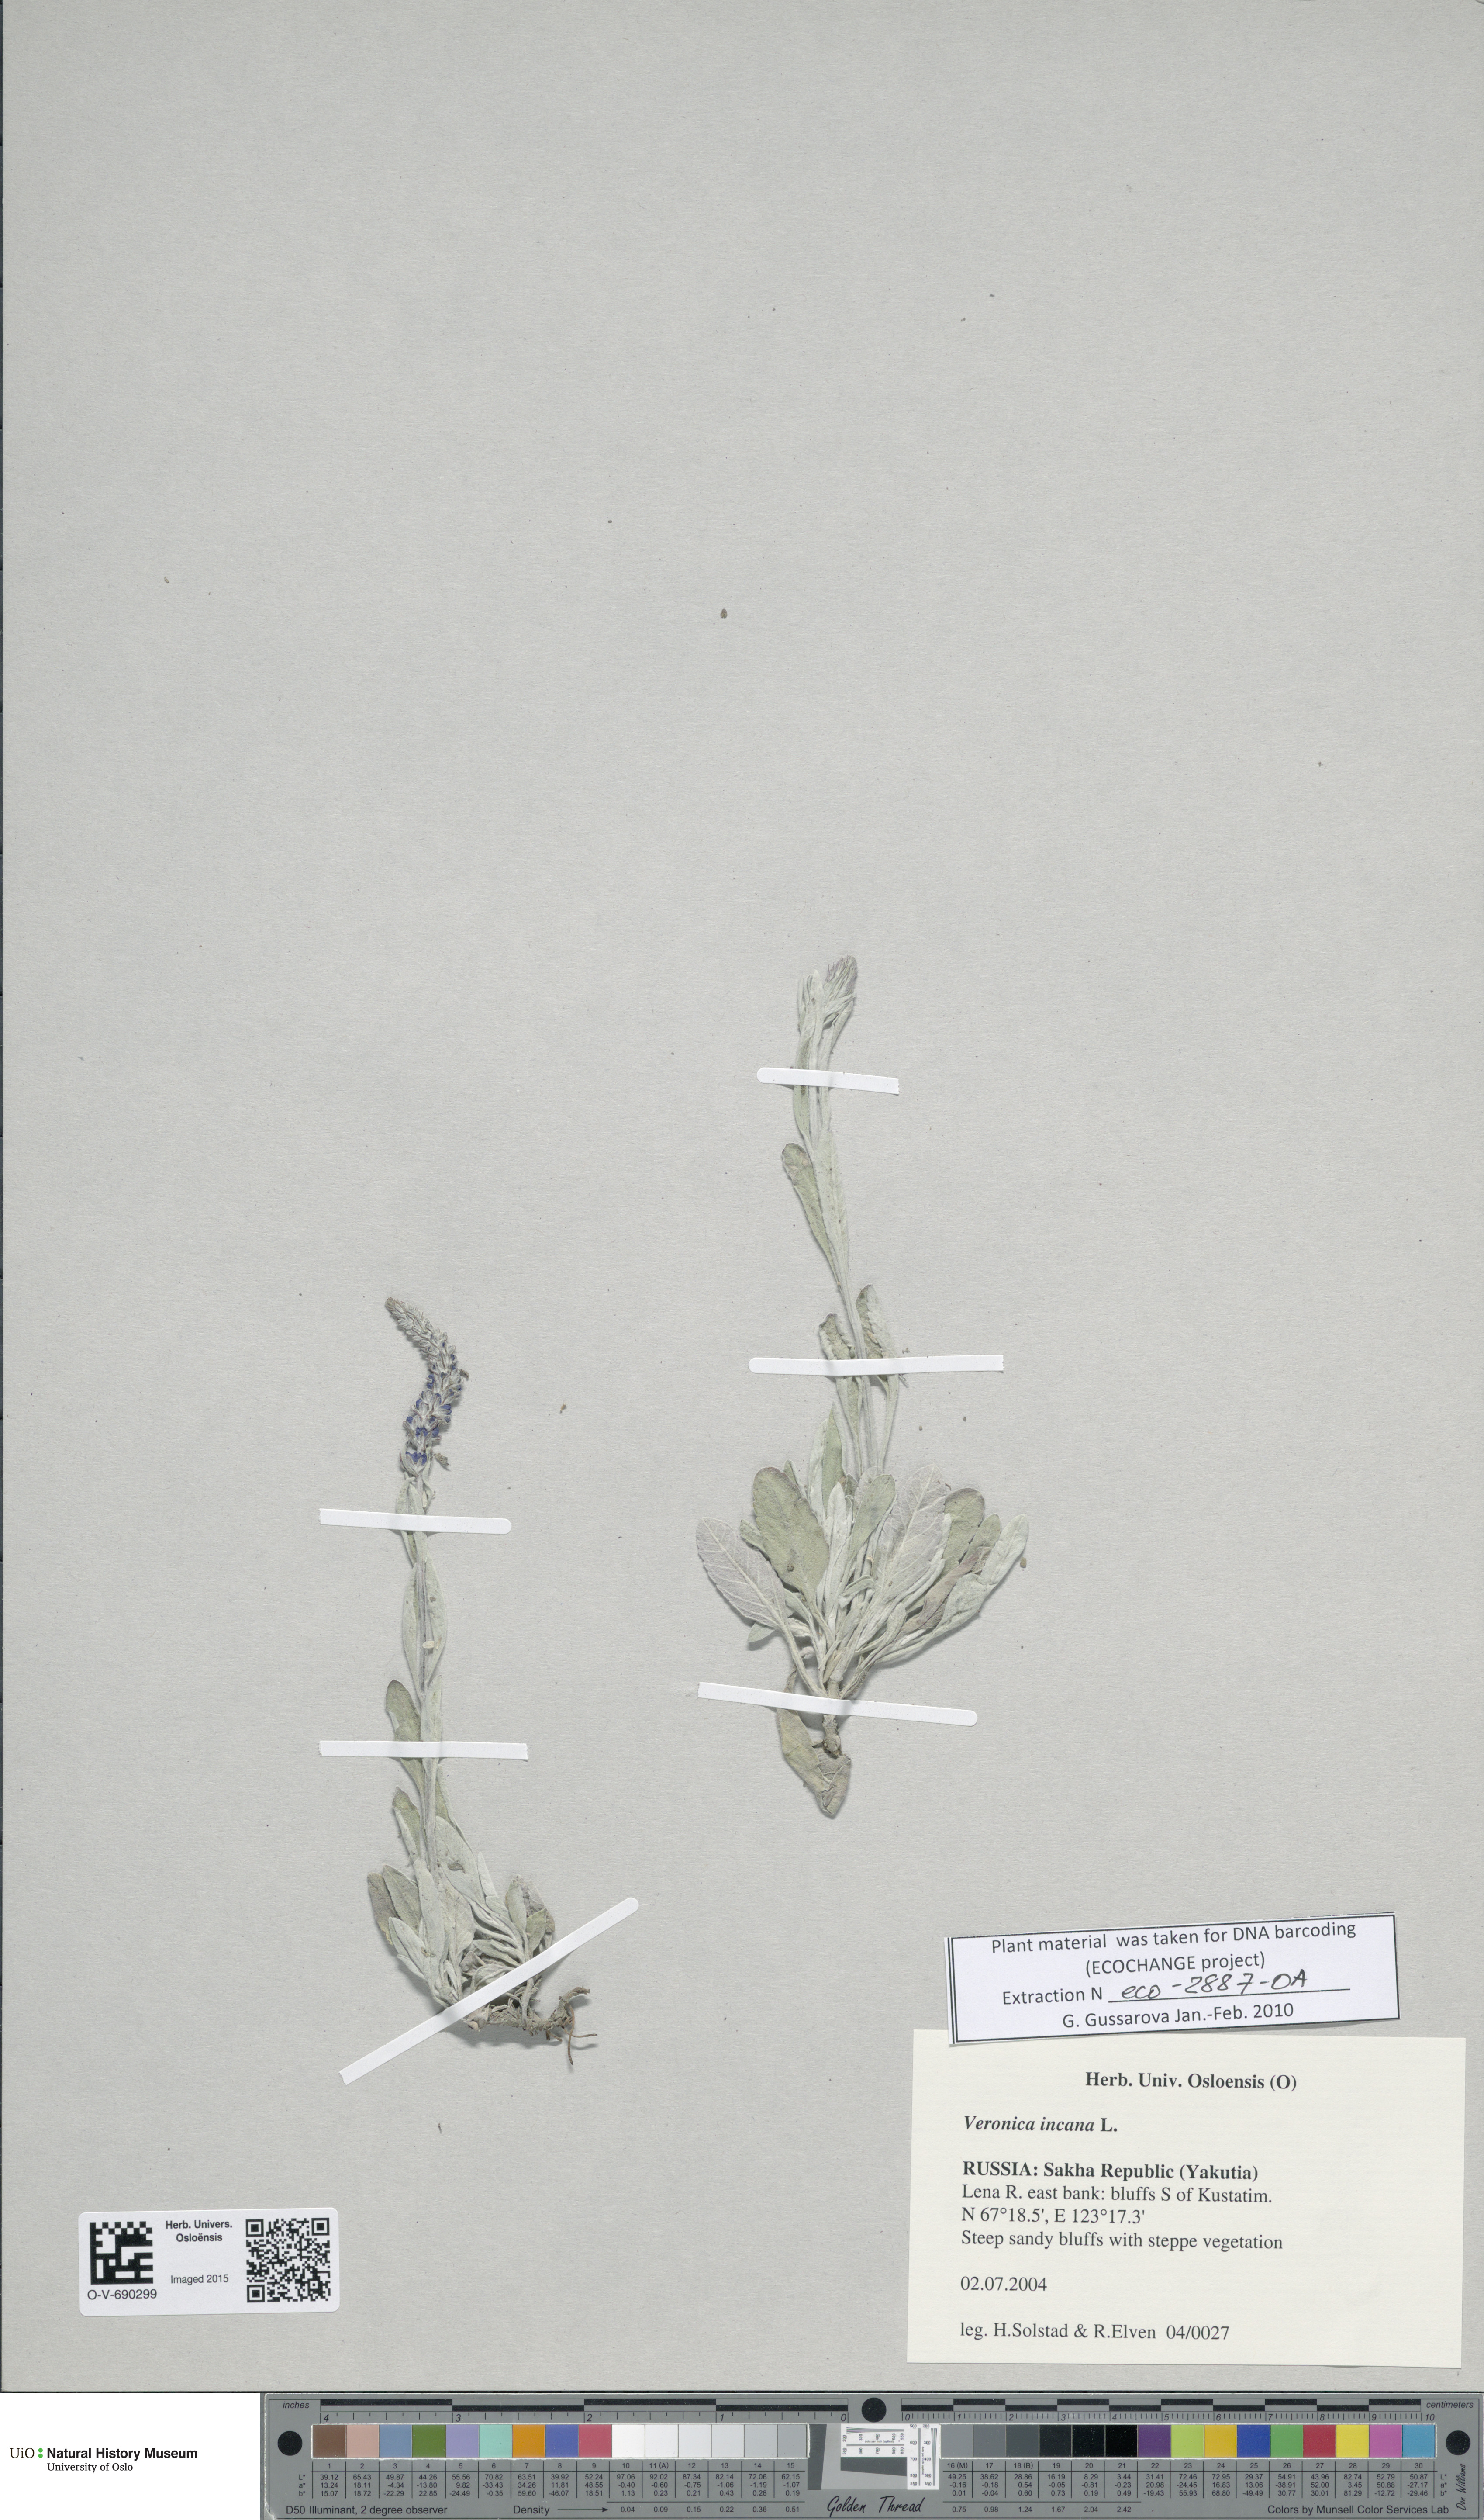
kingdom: Plantae
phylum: Tracheophyta
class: Magnoliopsida
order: Lamiales
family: Plantaginaceae
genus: Veronica
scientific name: Veronica incana
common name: Silver speedwell
